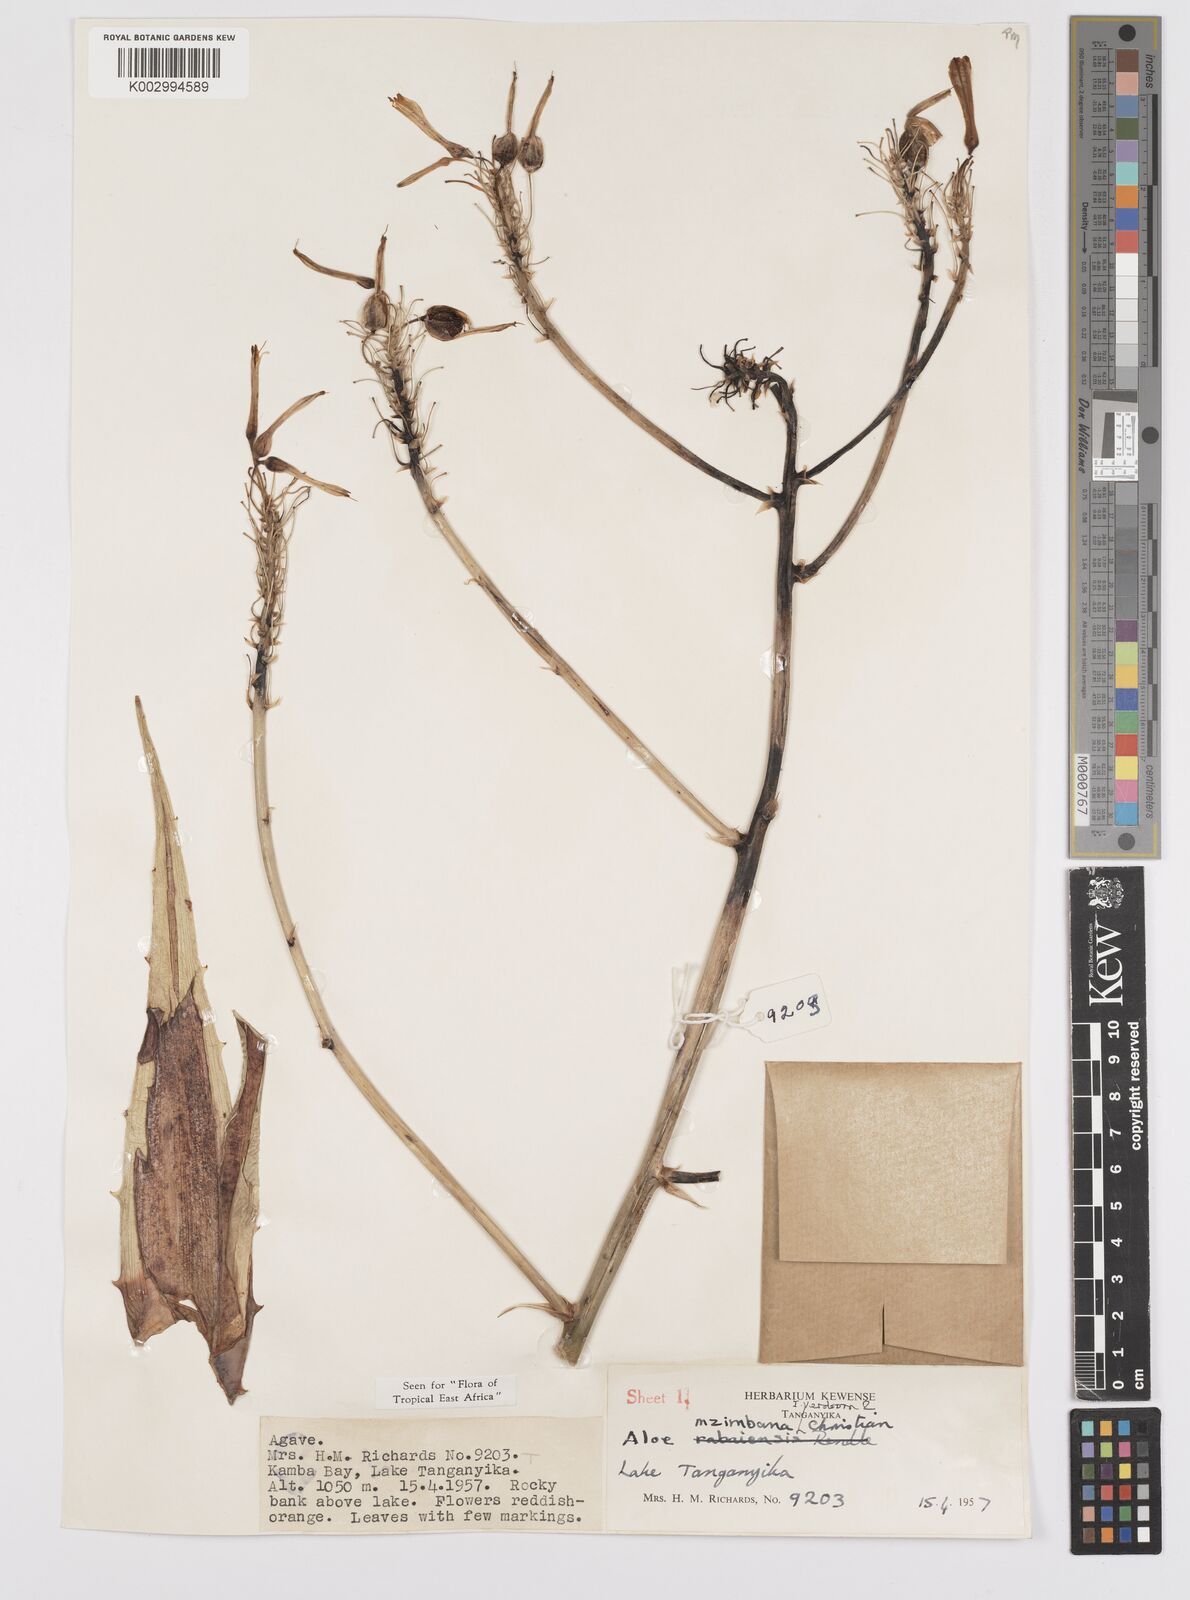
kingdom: Plantae
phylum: Tracheophyta
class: Liliopsida
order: Asparagales
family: Asphodelaceae
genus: Aloe
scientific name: Aloe mzimbana
